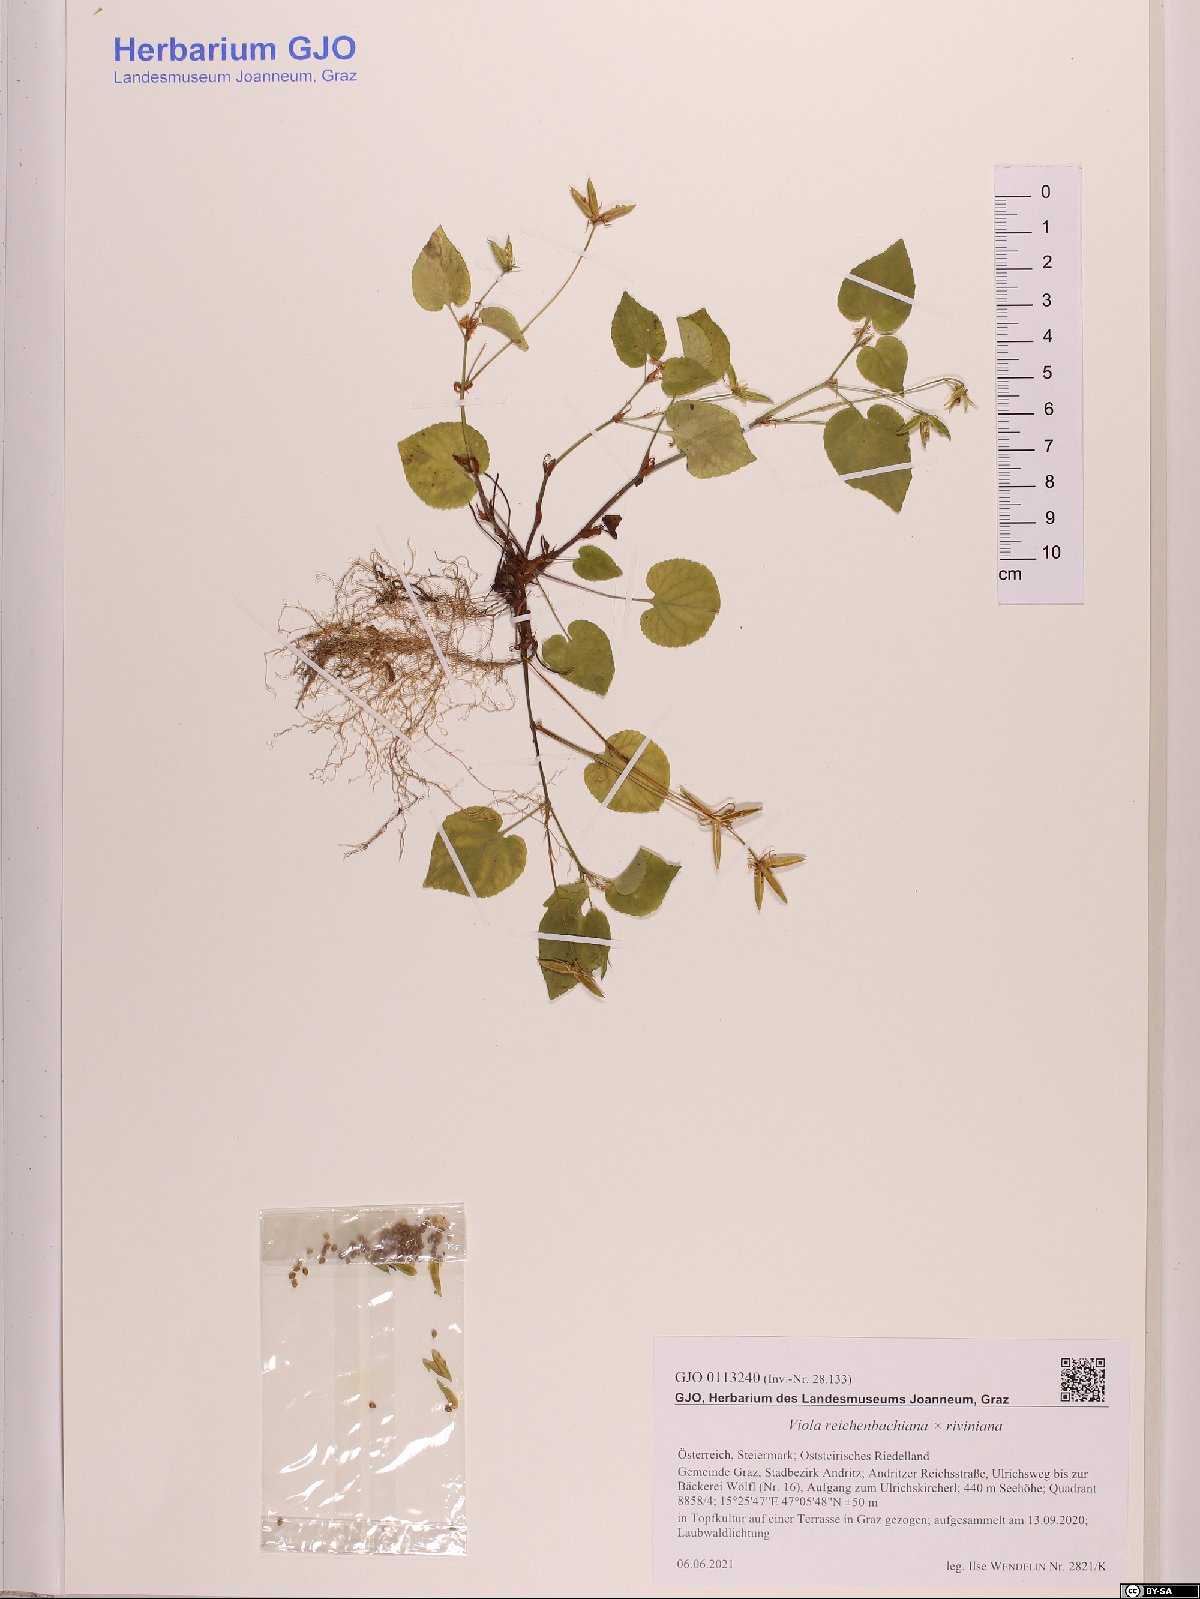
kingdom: Plantae
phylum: Tracheophyta
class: Magnoliopsida
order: Malpighiales
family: Violaceae
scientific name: Violaceae
